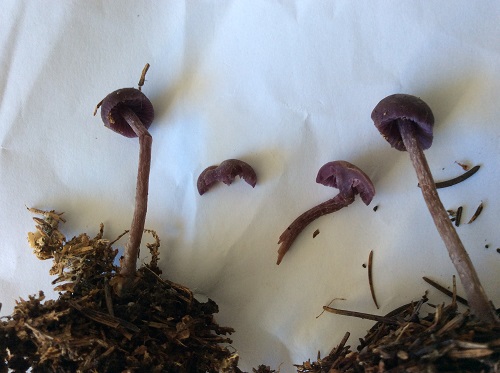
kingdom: Fungi
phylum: Basidiomycota
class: Agaricomycetes
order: Agaricales
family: Hydnangiaceae
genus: Laccaria
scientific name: Laccaria amethystina
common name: violet ametysthat
